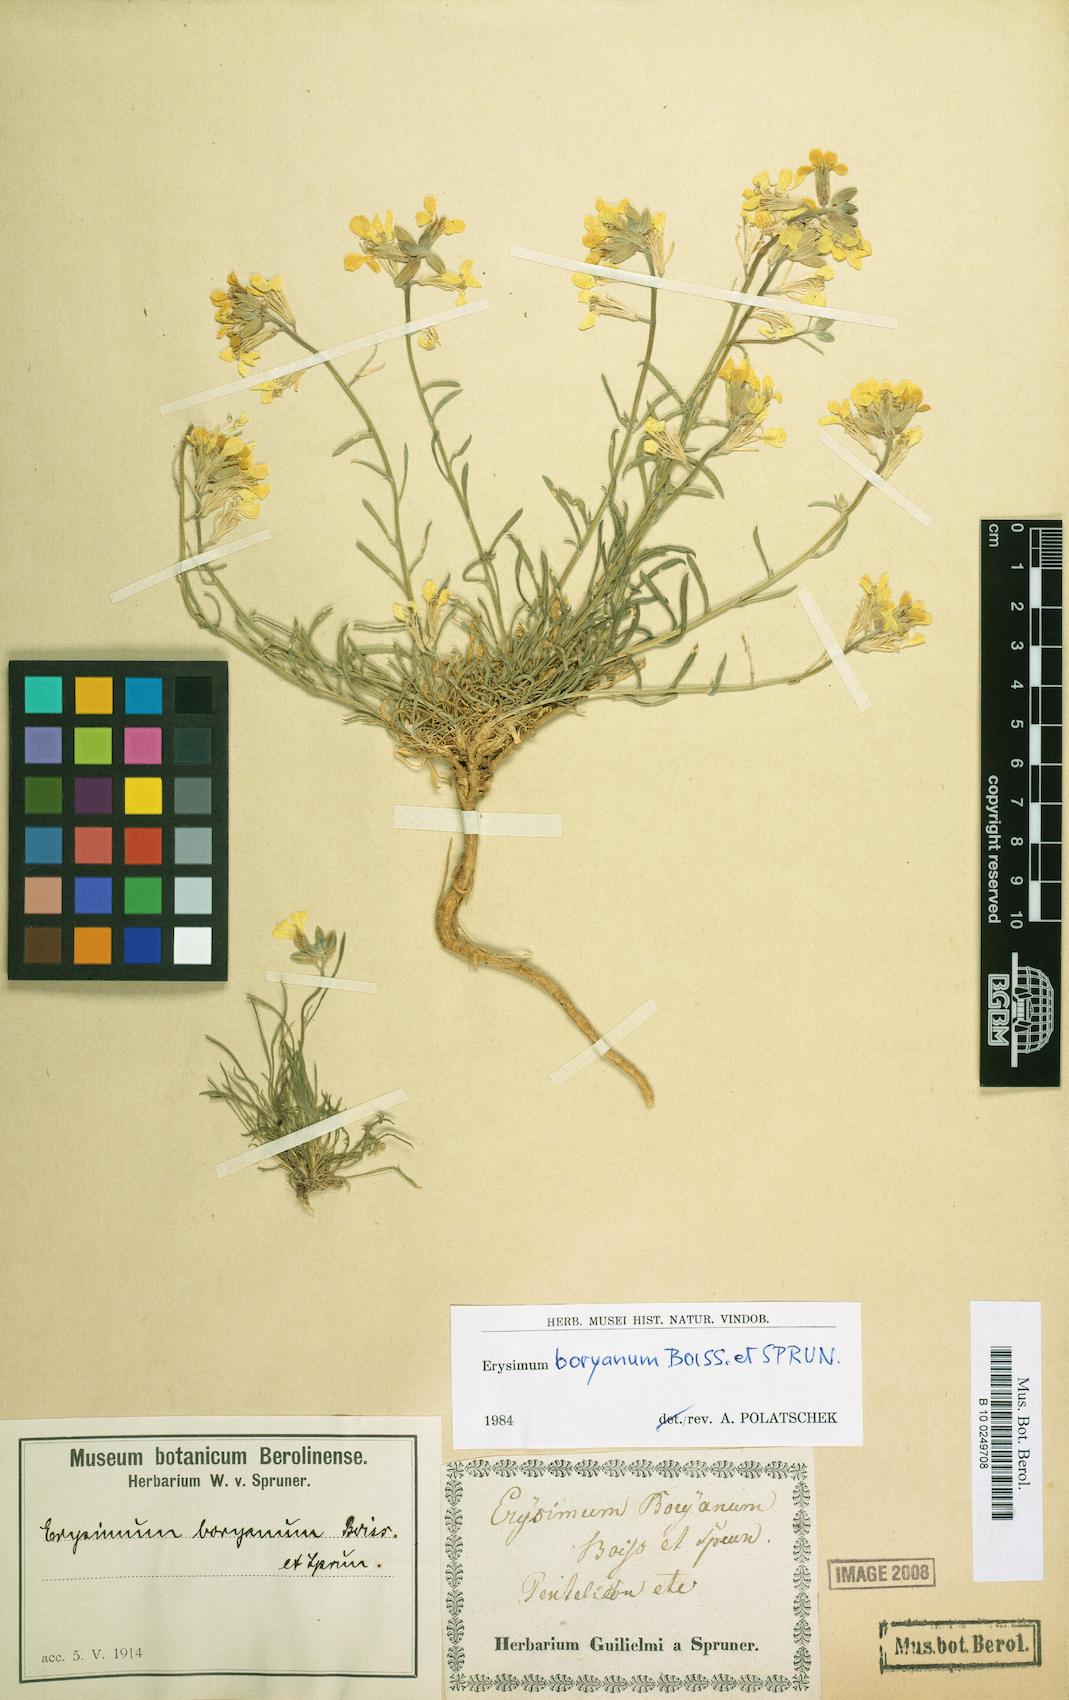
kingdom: Plantae
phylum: Tracheophyta
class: Magnoliopsida
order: Brassicales
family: Brassicaceae
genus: Erysimum
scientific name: Erysimum pusillum
